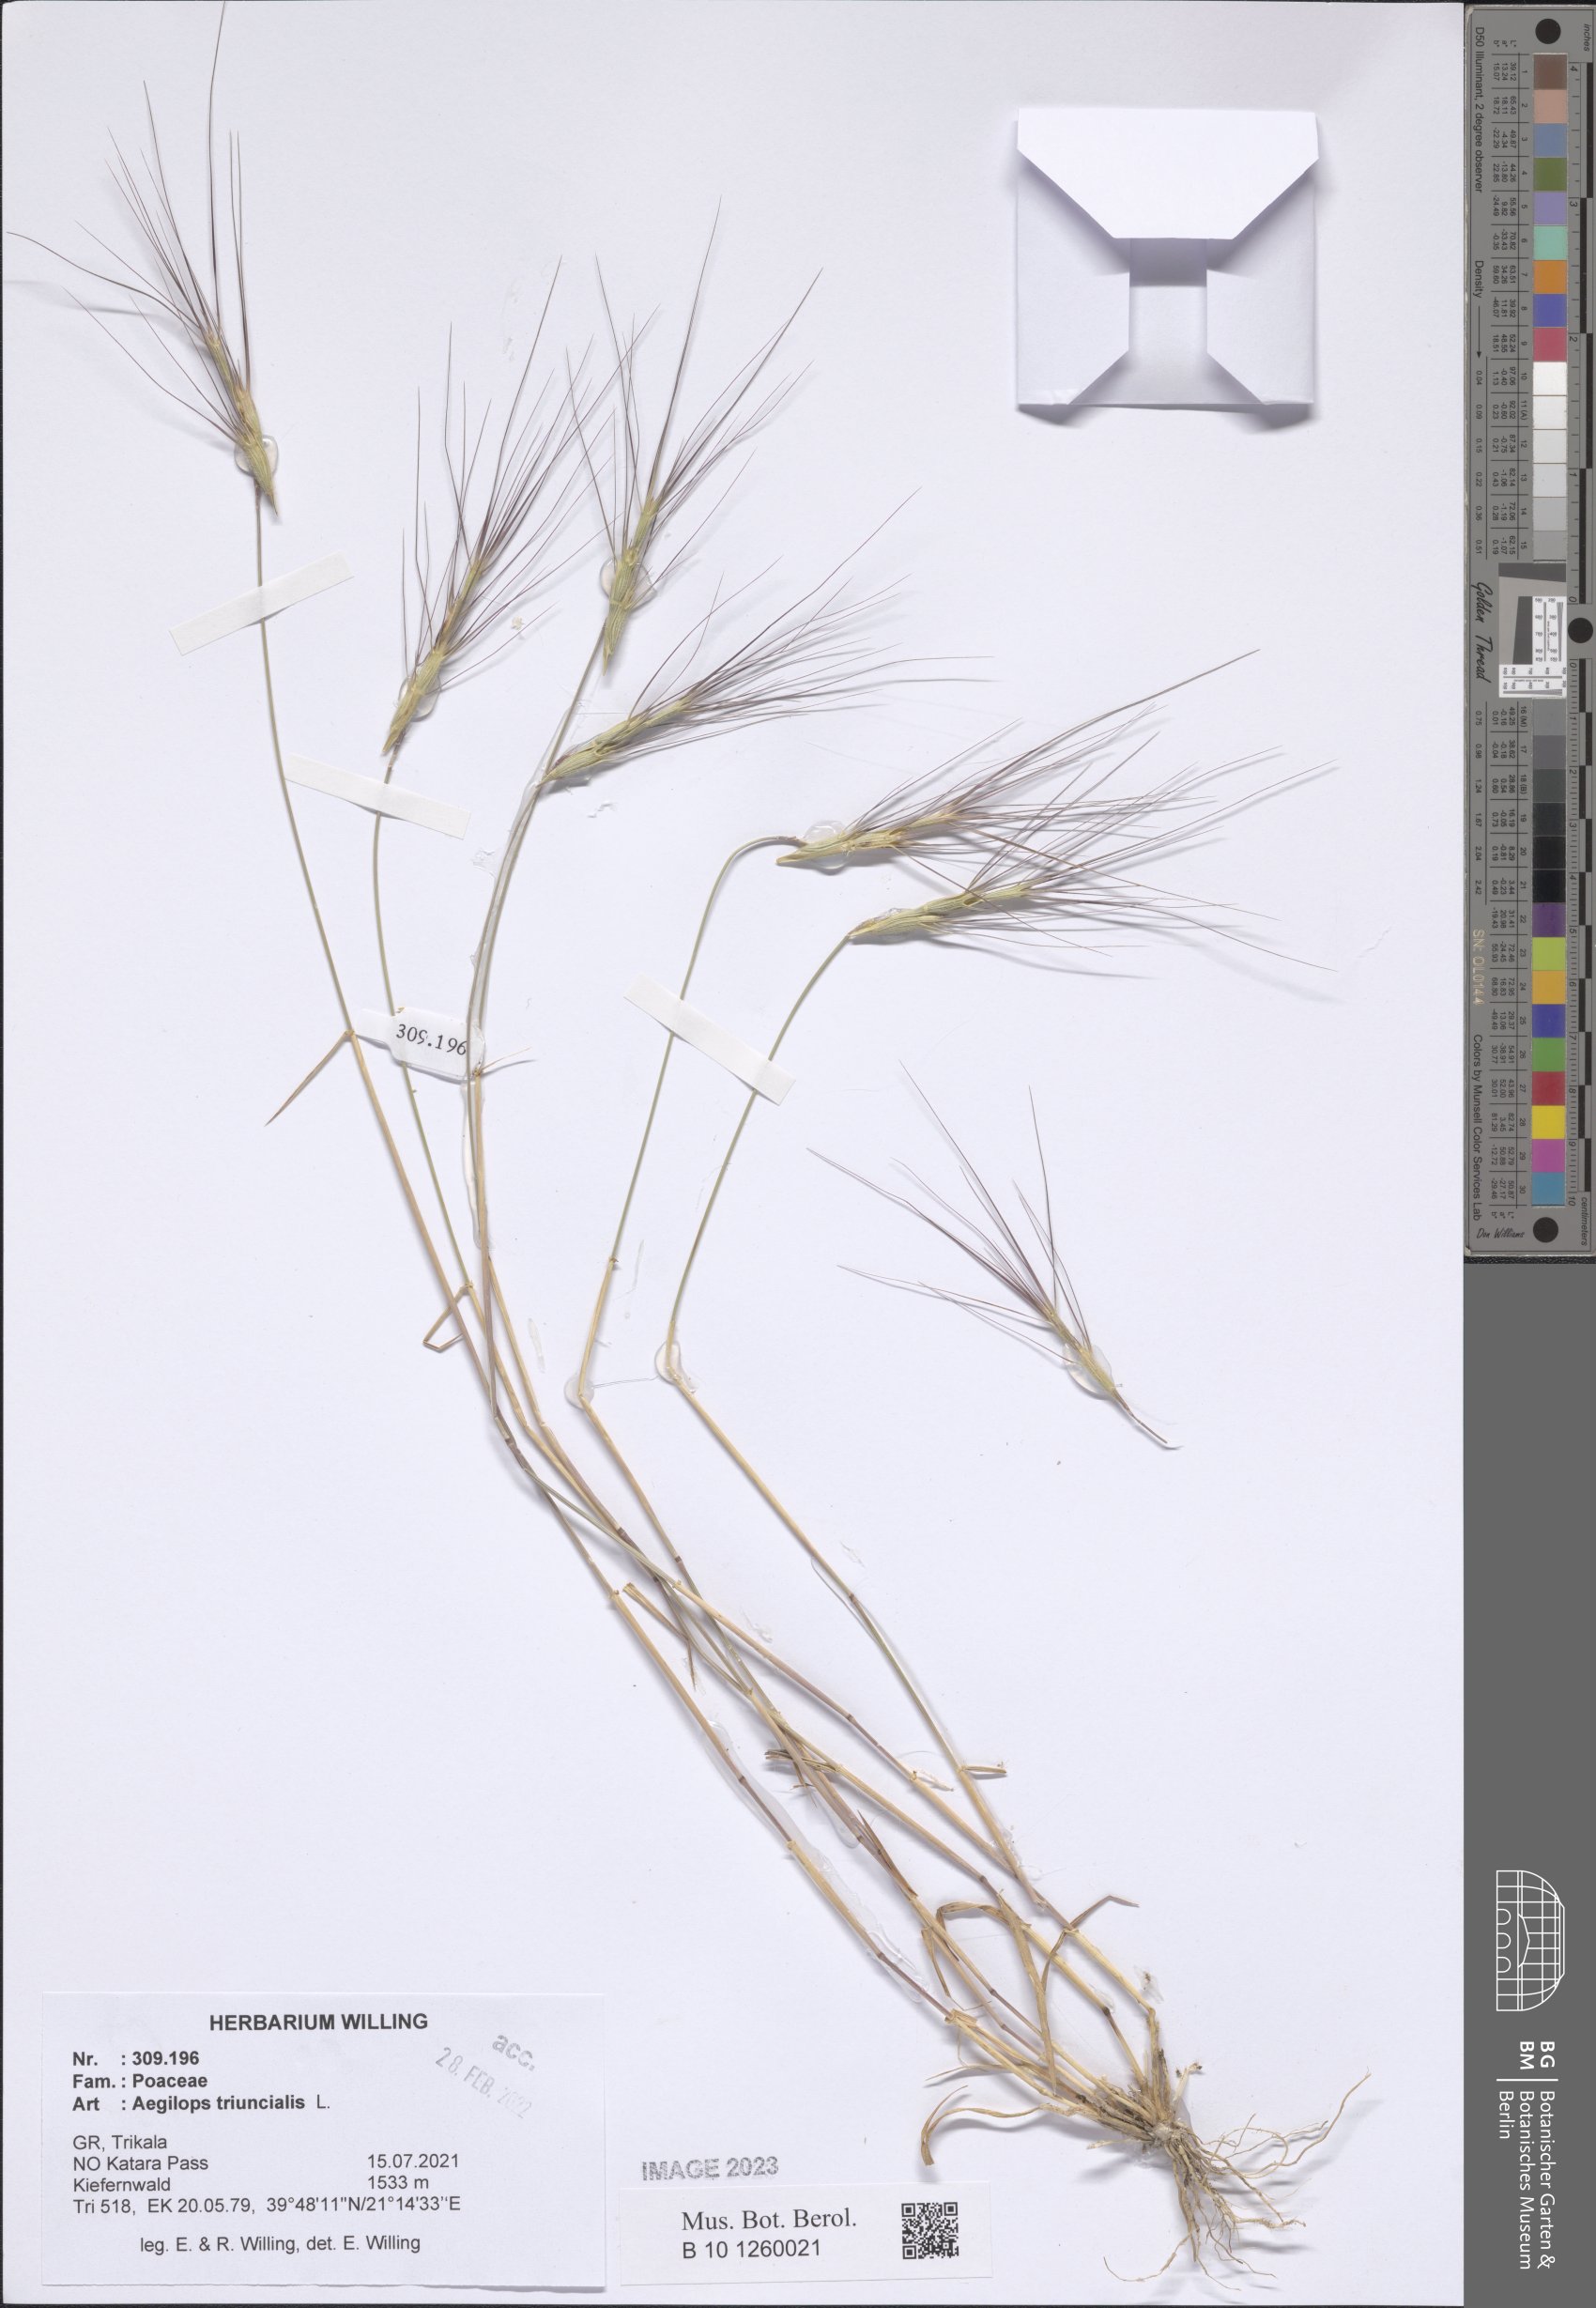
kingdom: Plantae
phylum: Tracheophyta
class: Liliopsida
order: Poales
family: Poaceae
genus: Aegilops
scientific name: Aegilops triuncialis
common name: Barb goat grass
